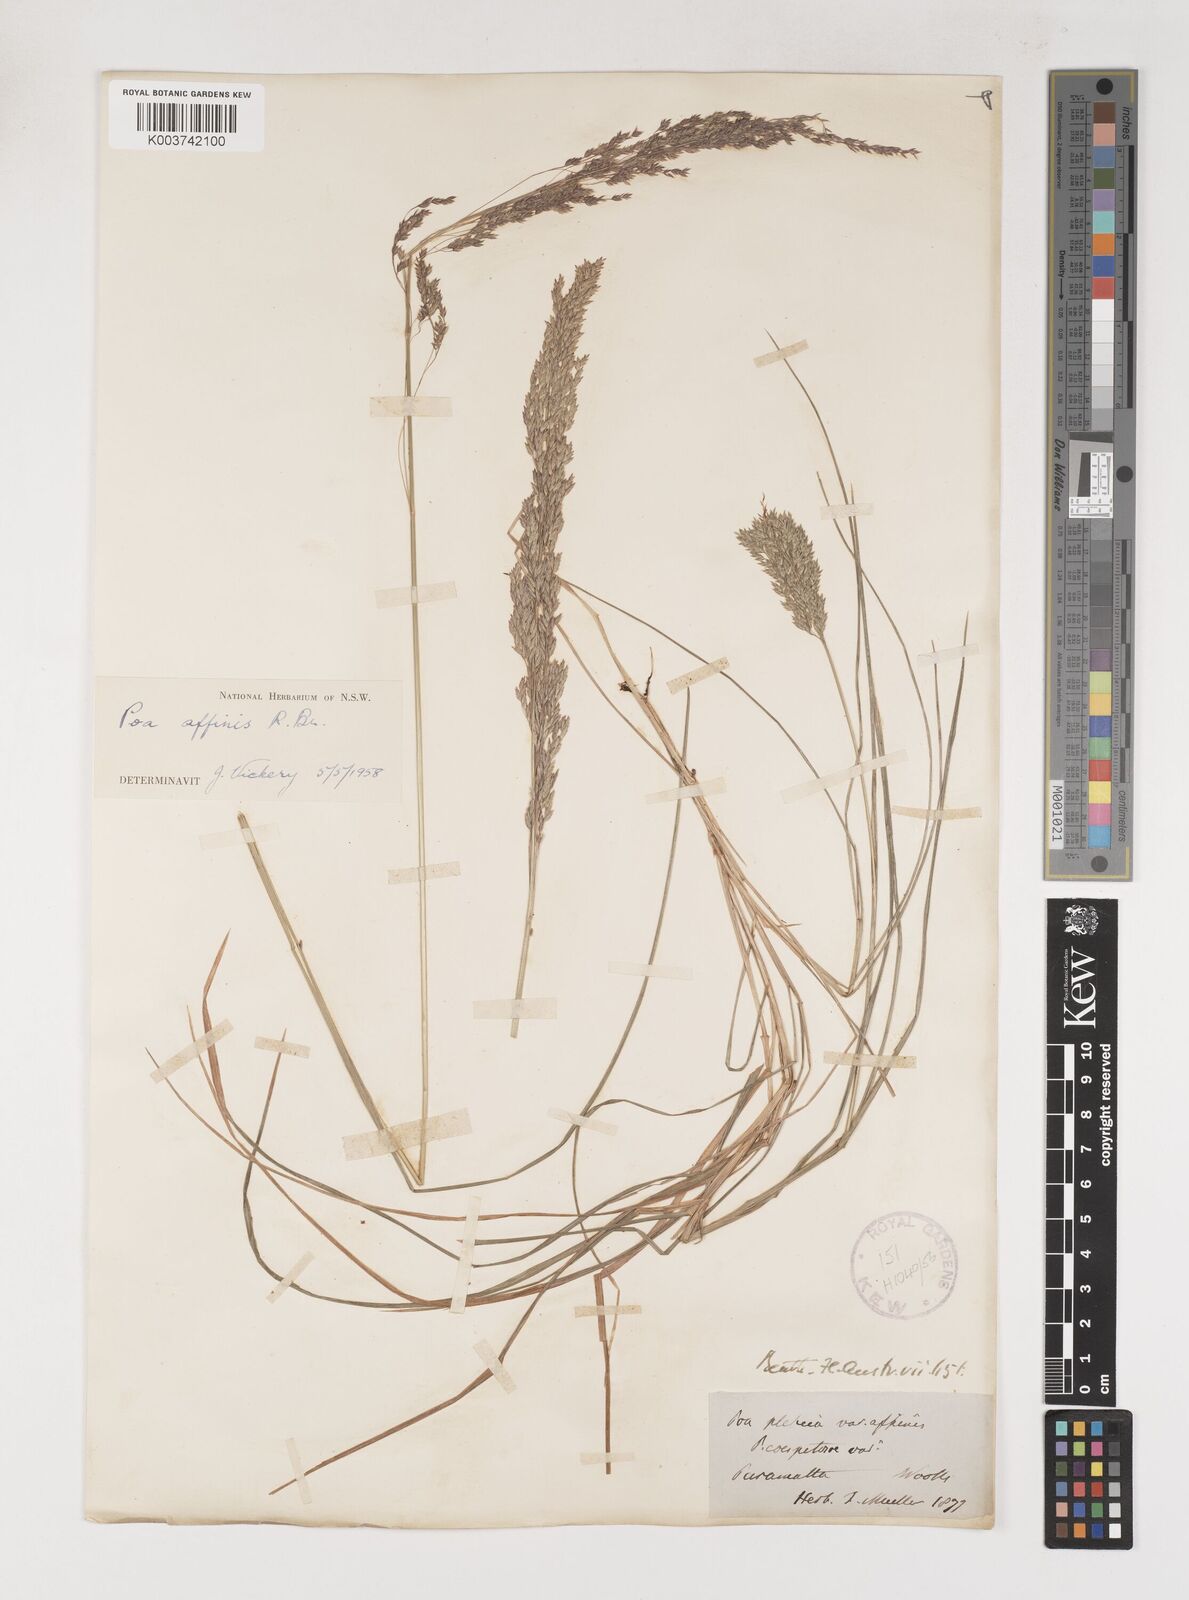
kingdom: Plantae
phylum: Tracheophyta
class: Liliopsida
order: Poales
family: Poaceae
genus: Poa
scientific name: Poa affinis
